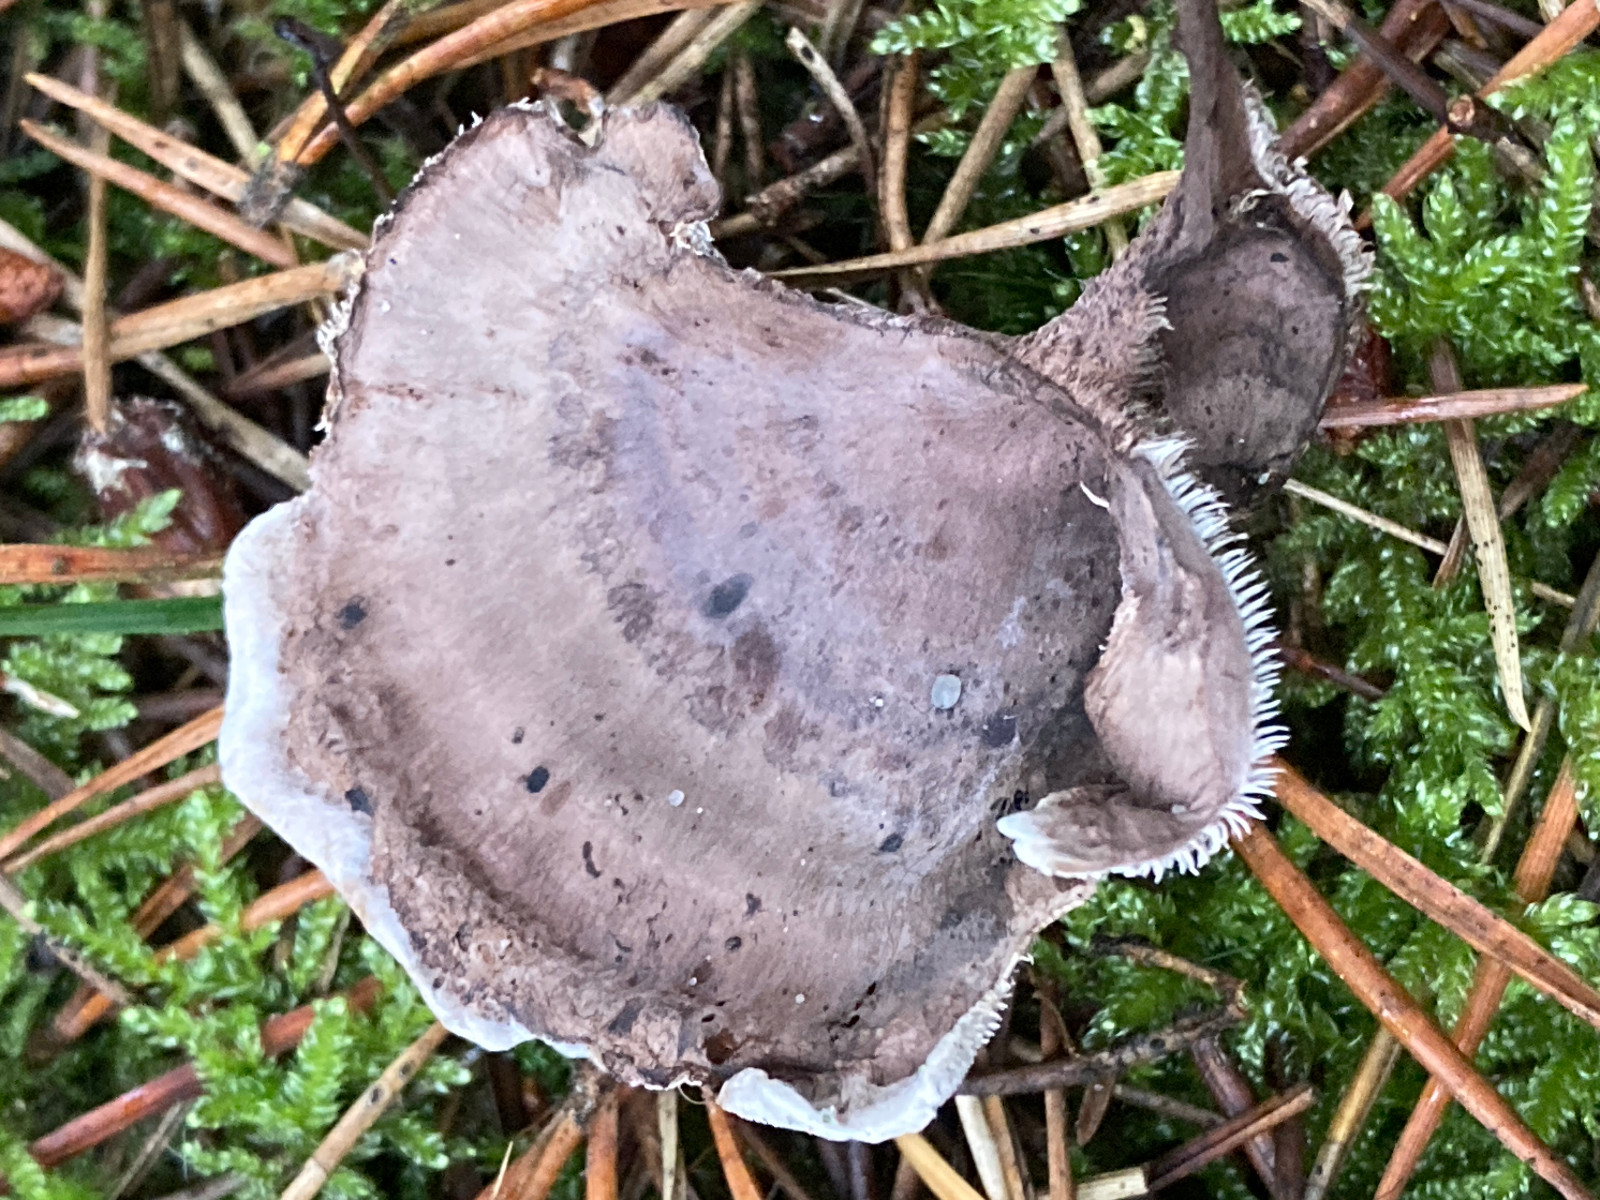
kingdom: Fungi
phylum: Basidiomycota
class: Agaricomycetes
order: Thelephorales
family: Thelephoraceae
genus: Phellodon
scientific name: Phellodon tomentosus
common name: vellugtende duftpigsvamp
